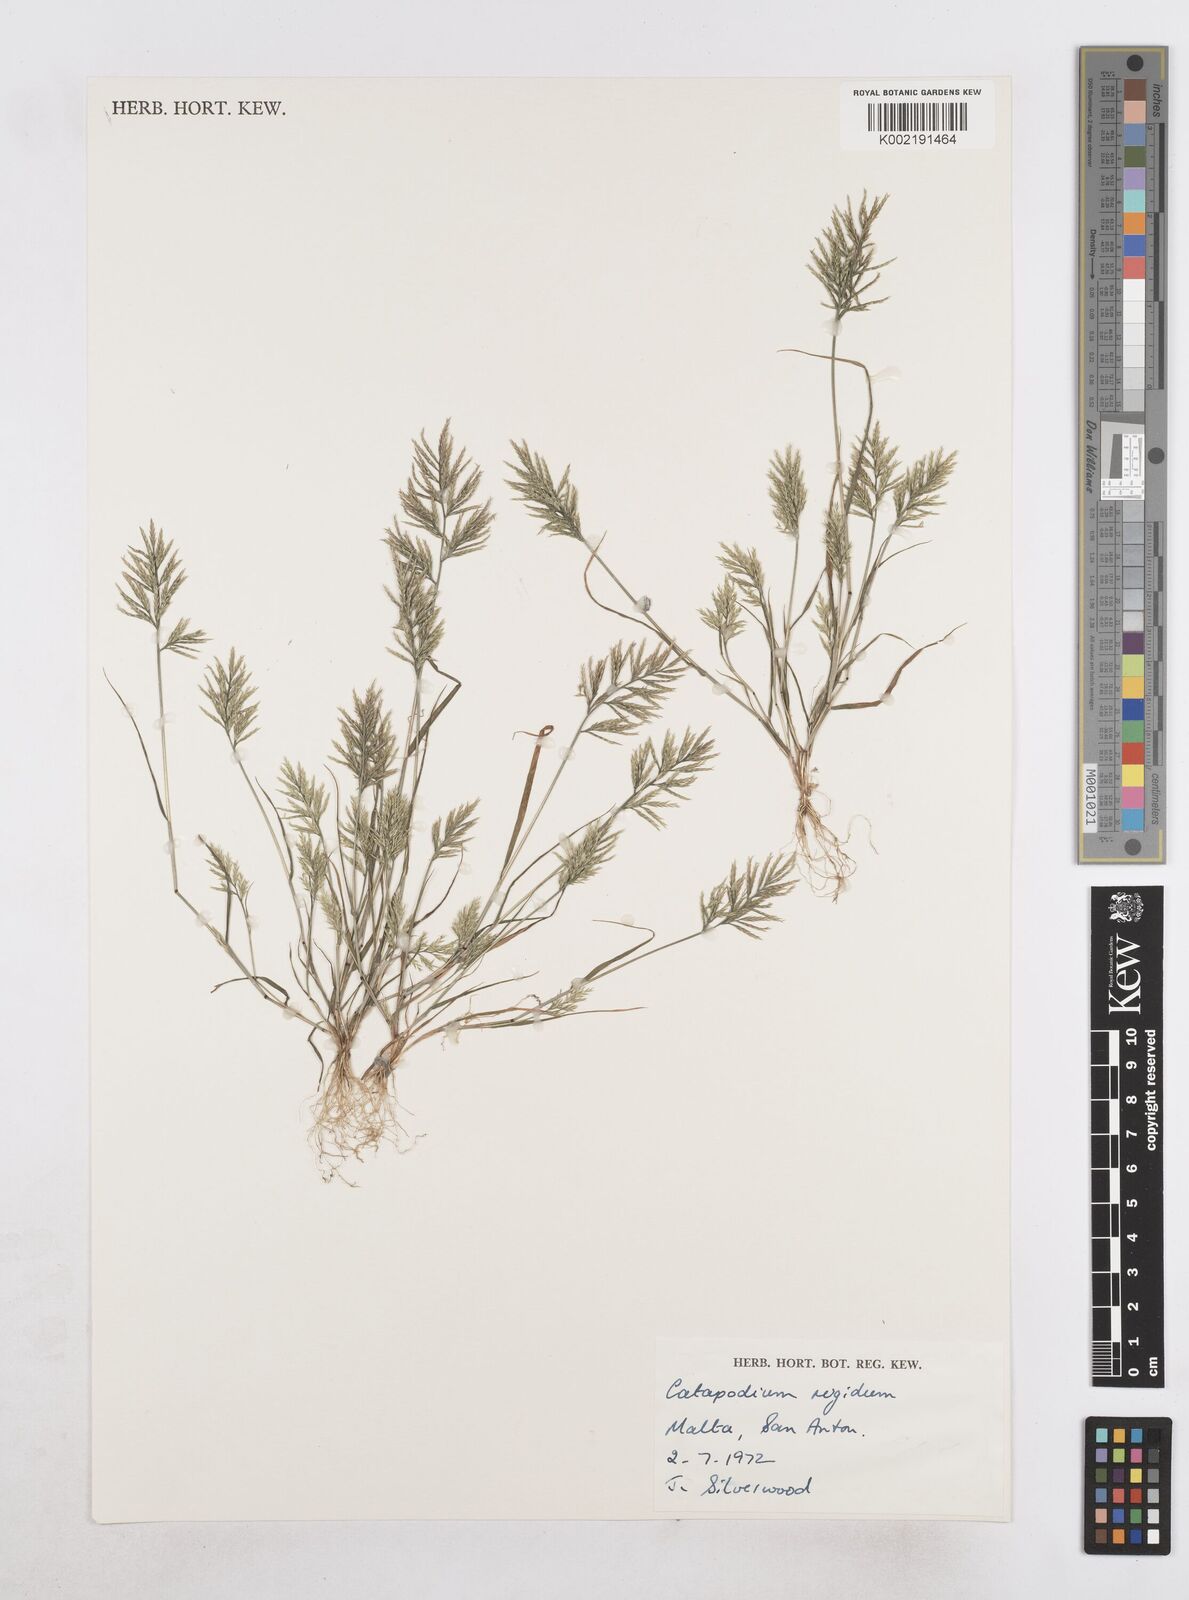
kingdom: Plantae
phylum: Tracheophyta
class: Liliopsida
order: Poales
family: Poaceae
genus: Catapodium
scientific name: Catapodium rigidum
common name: Fern-grass
